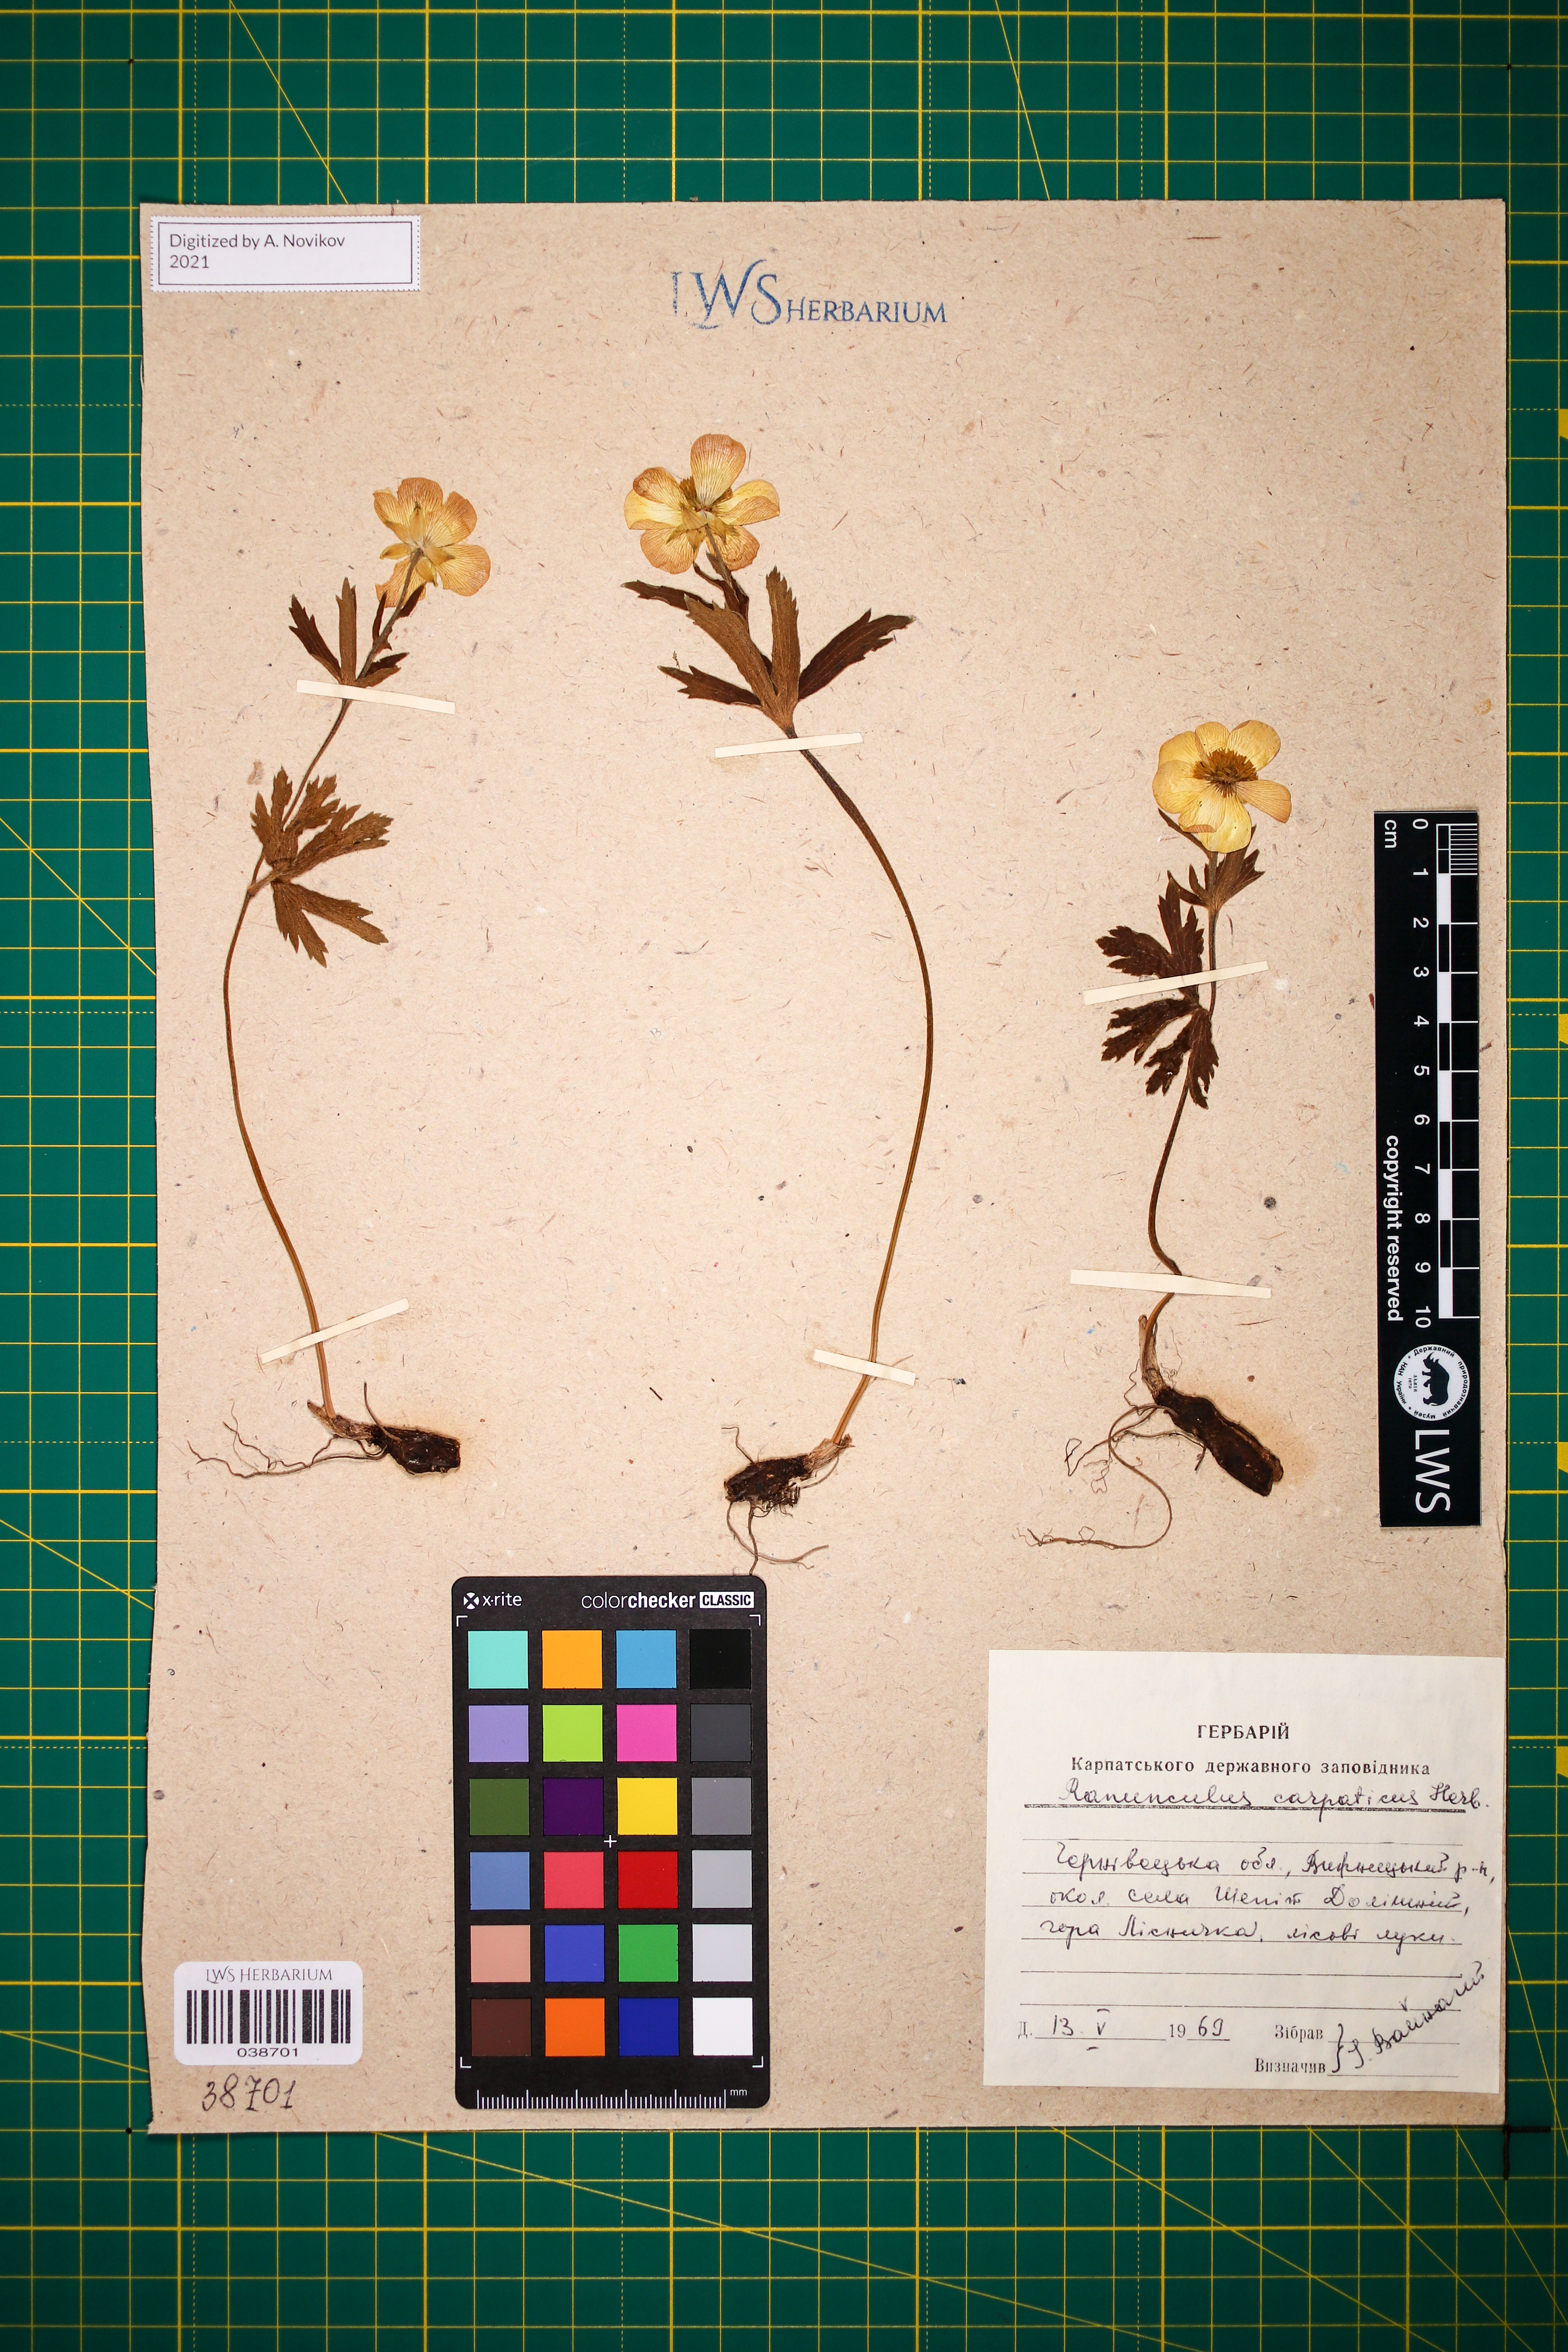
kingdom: Plantae
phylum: Tracheophyta
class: Magnoliopsida
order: Ranunculales
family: Ranunculaceae
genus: Ranunculus
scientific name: Ranunculus carpaticus
